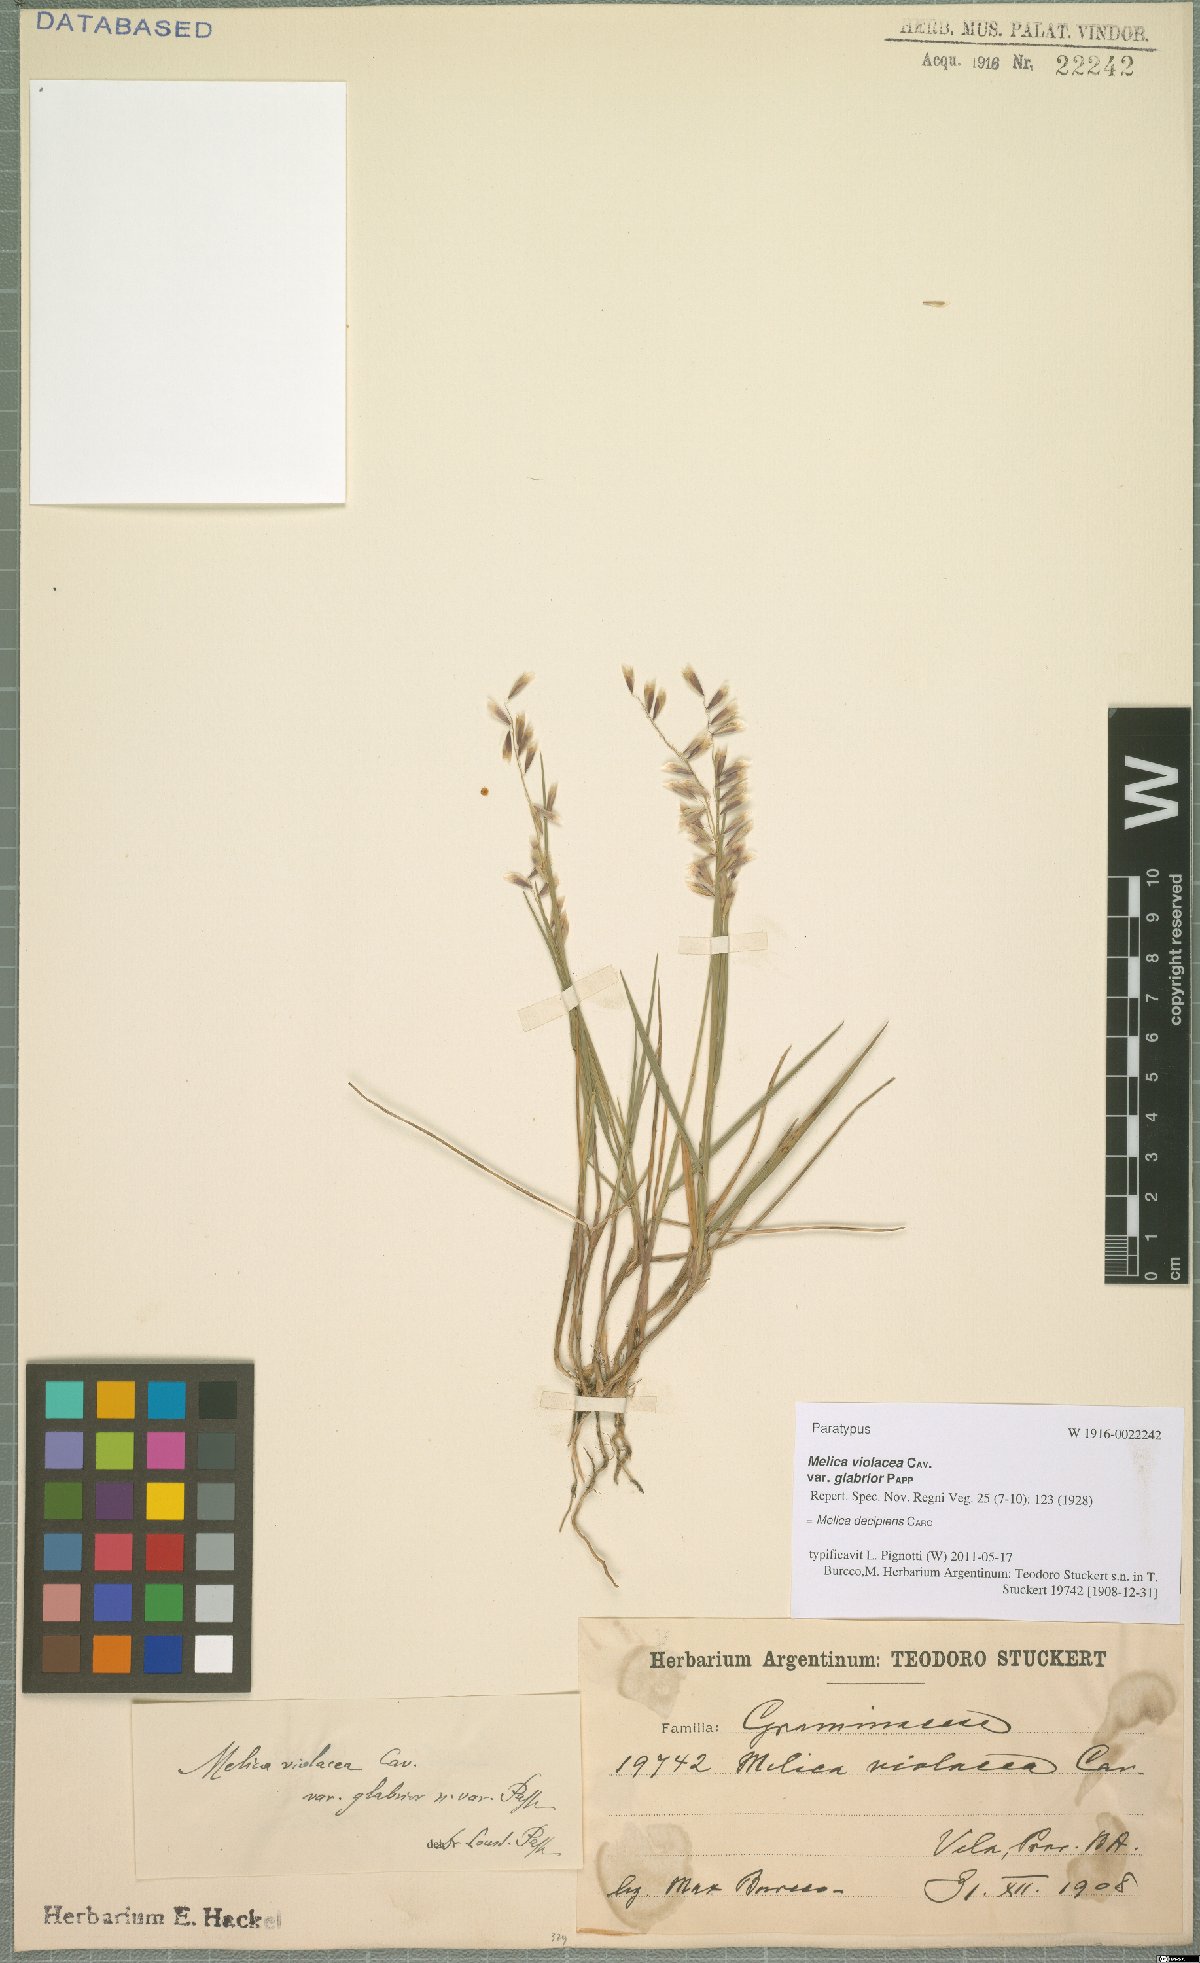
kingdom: Plantae
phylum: Tracheophyta
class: Liliopsida
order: Poales
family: Poaceae
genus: Melica
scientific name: Melica decipiens
